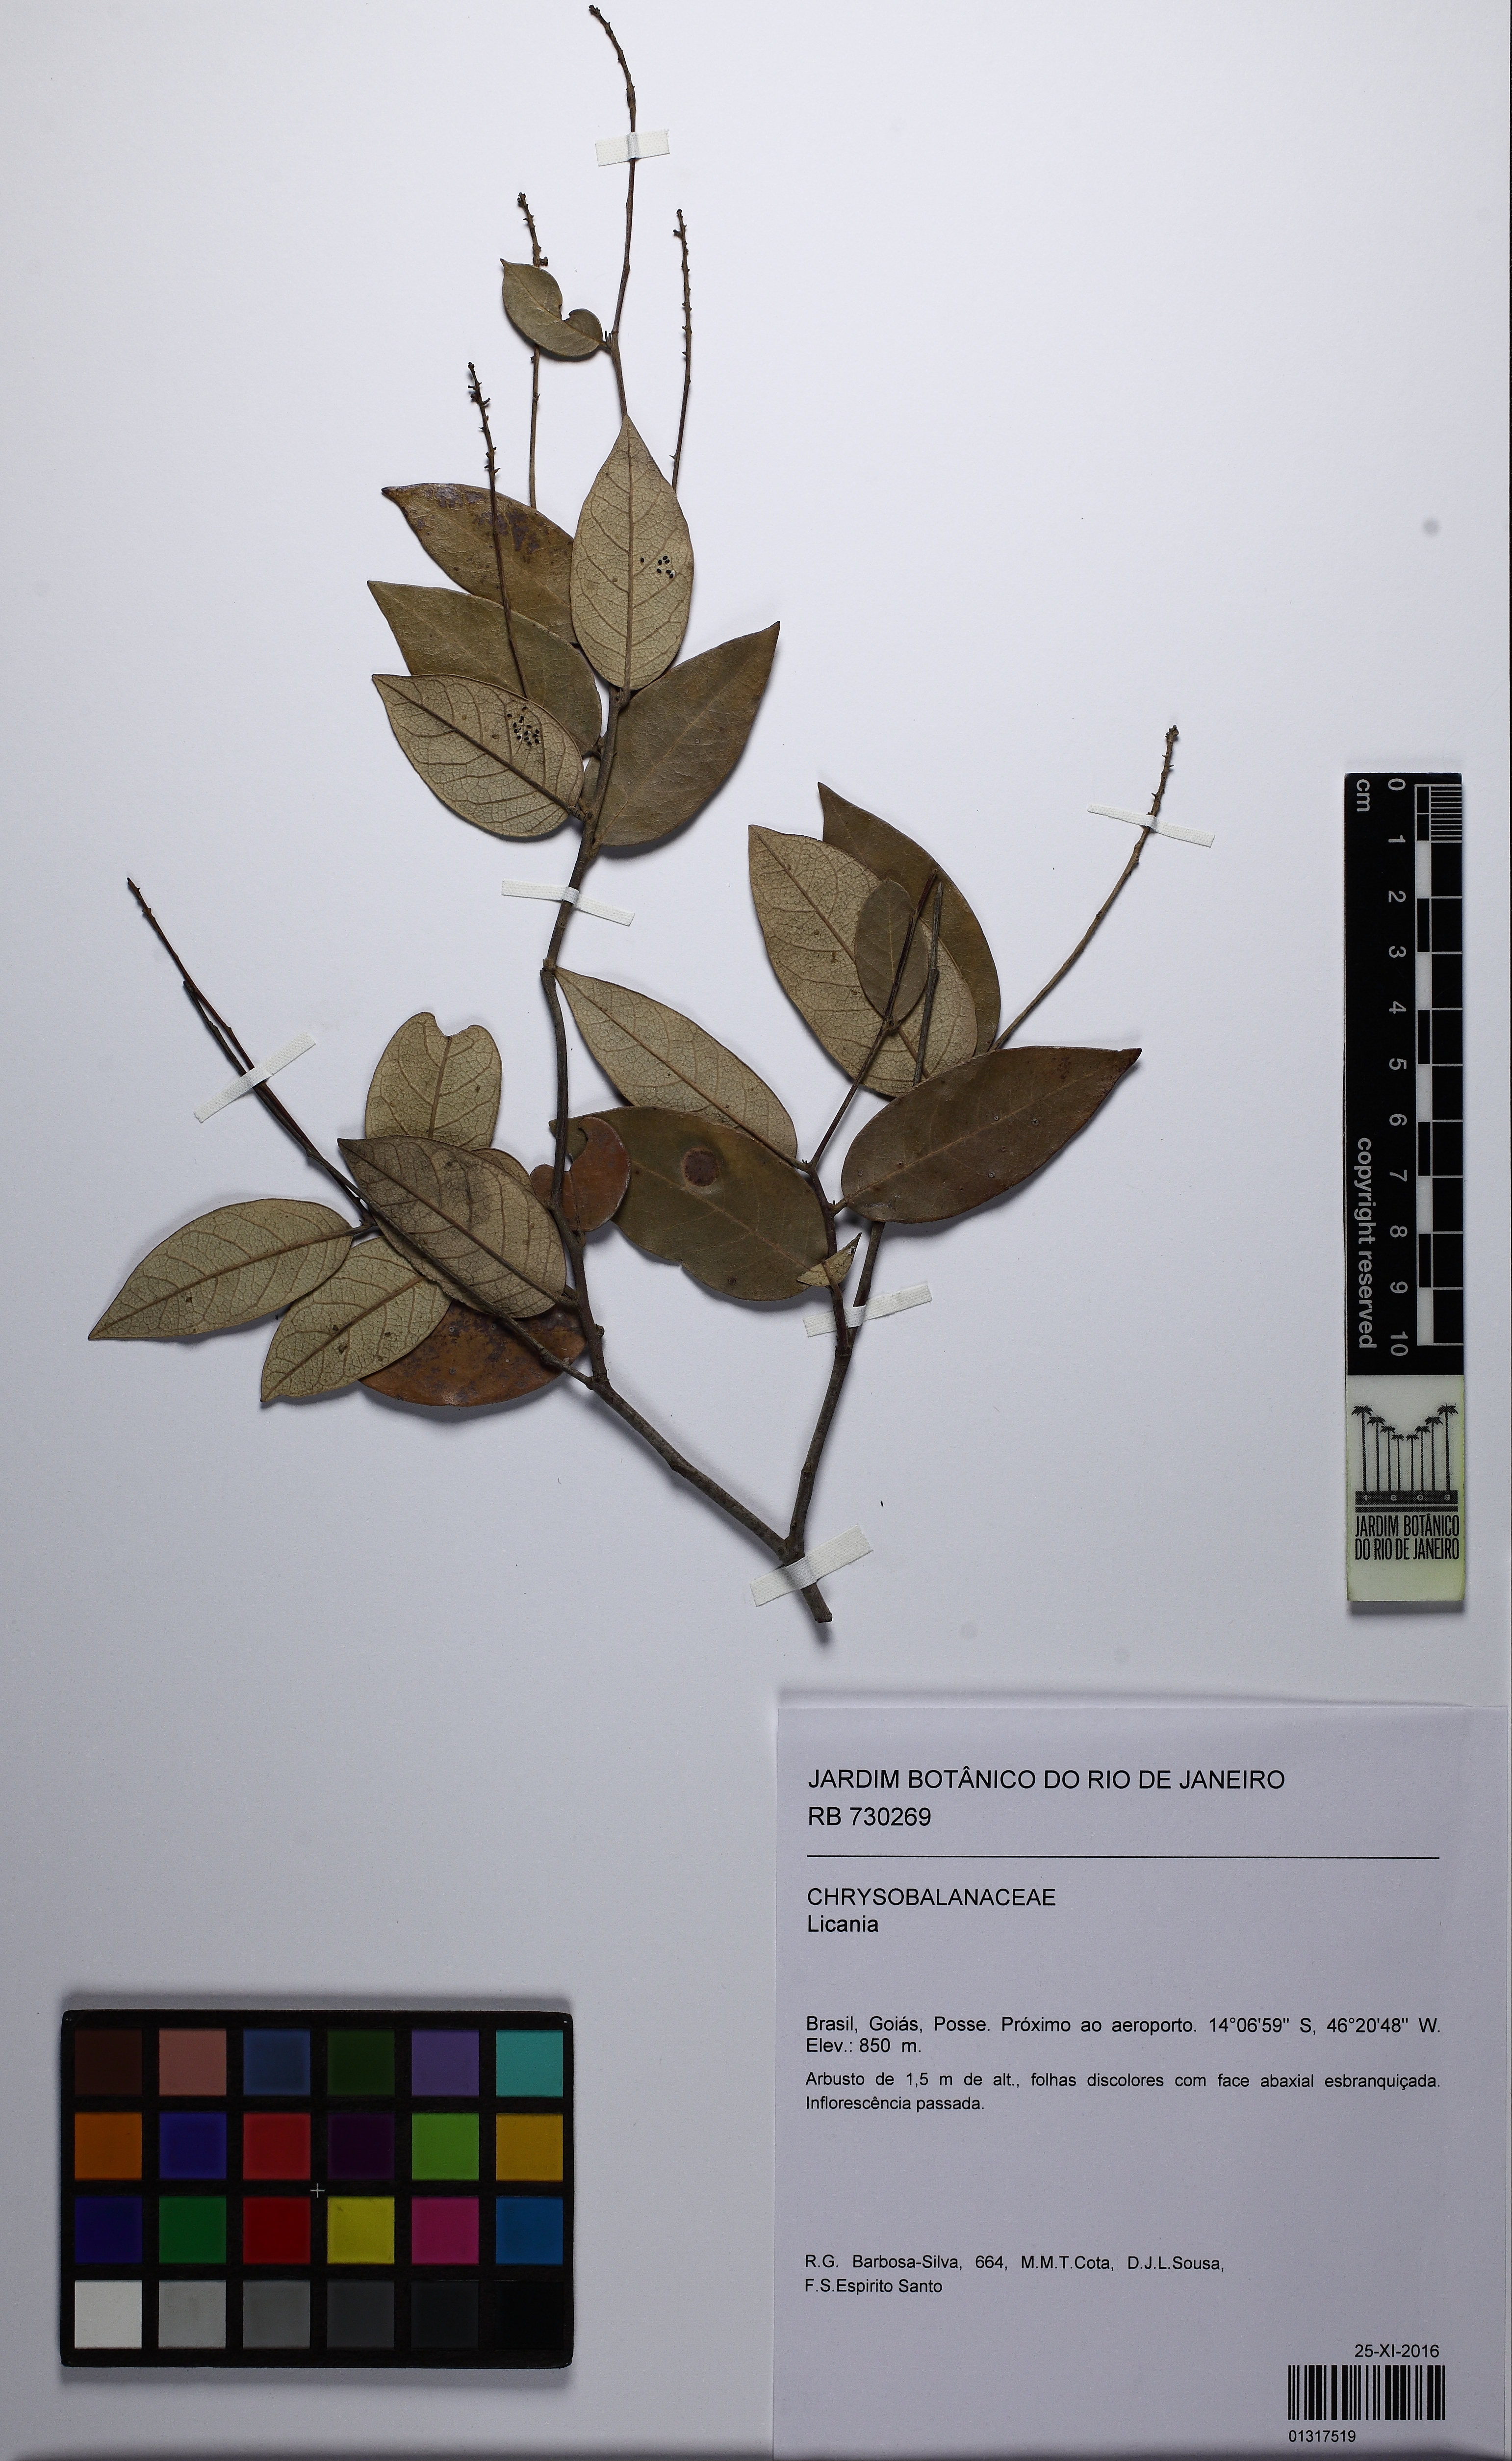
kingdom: Plantae
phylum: Tracheophyta
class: Magnoliopsida
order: Malpighiales
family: Chrysobalanaceae
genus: Licania
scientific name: Licania
